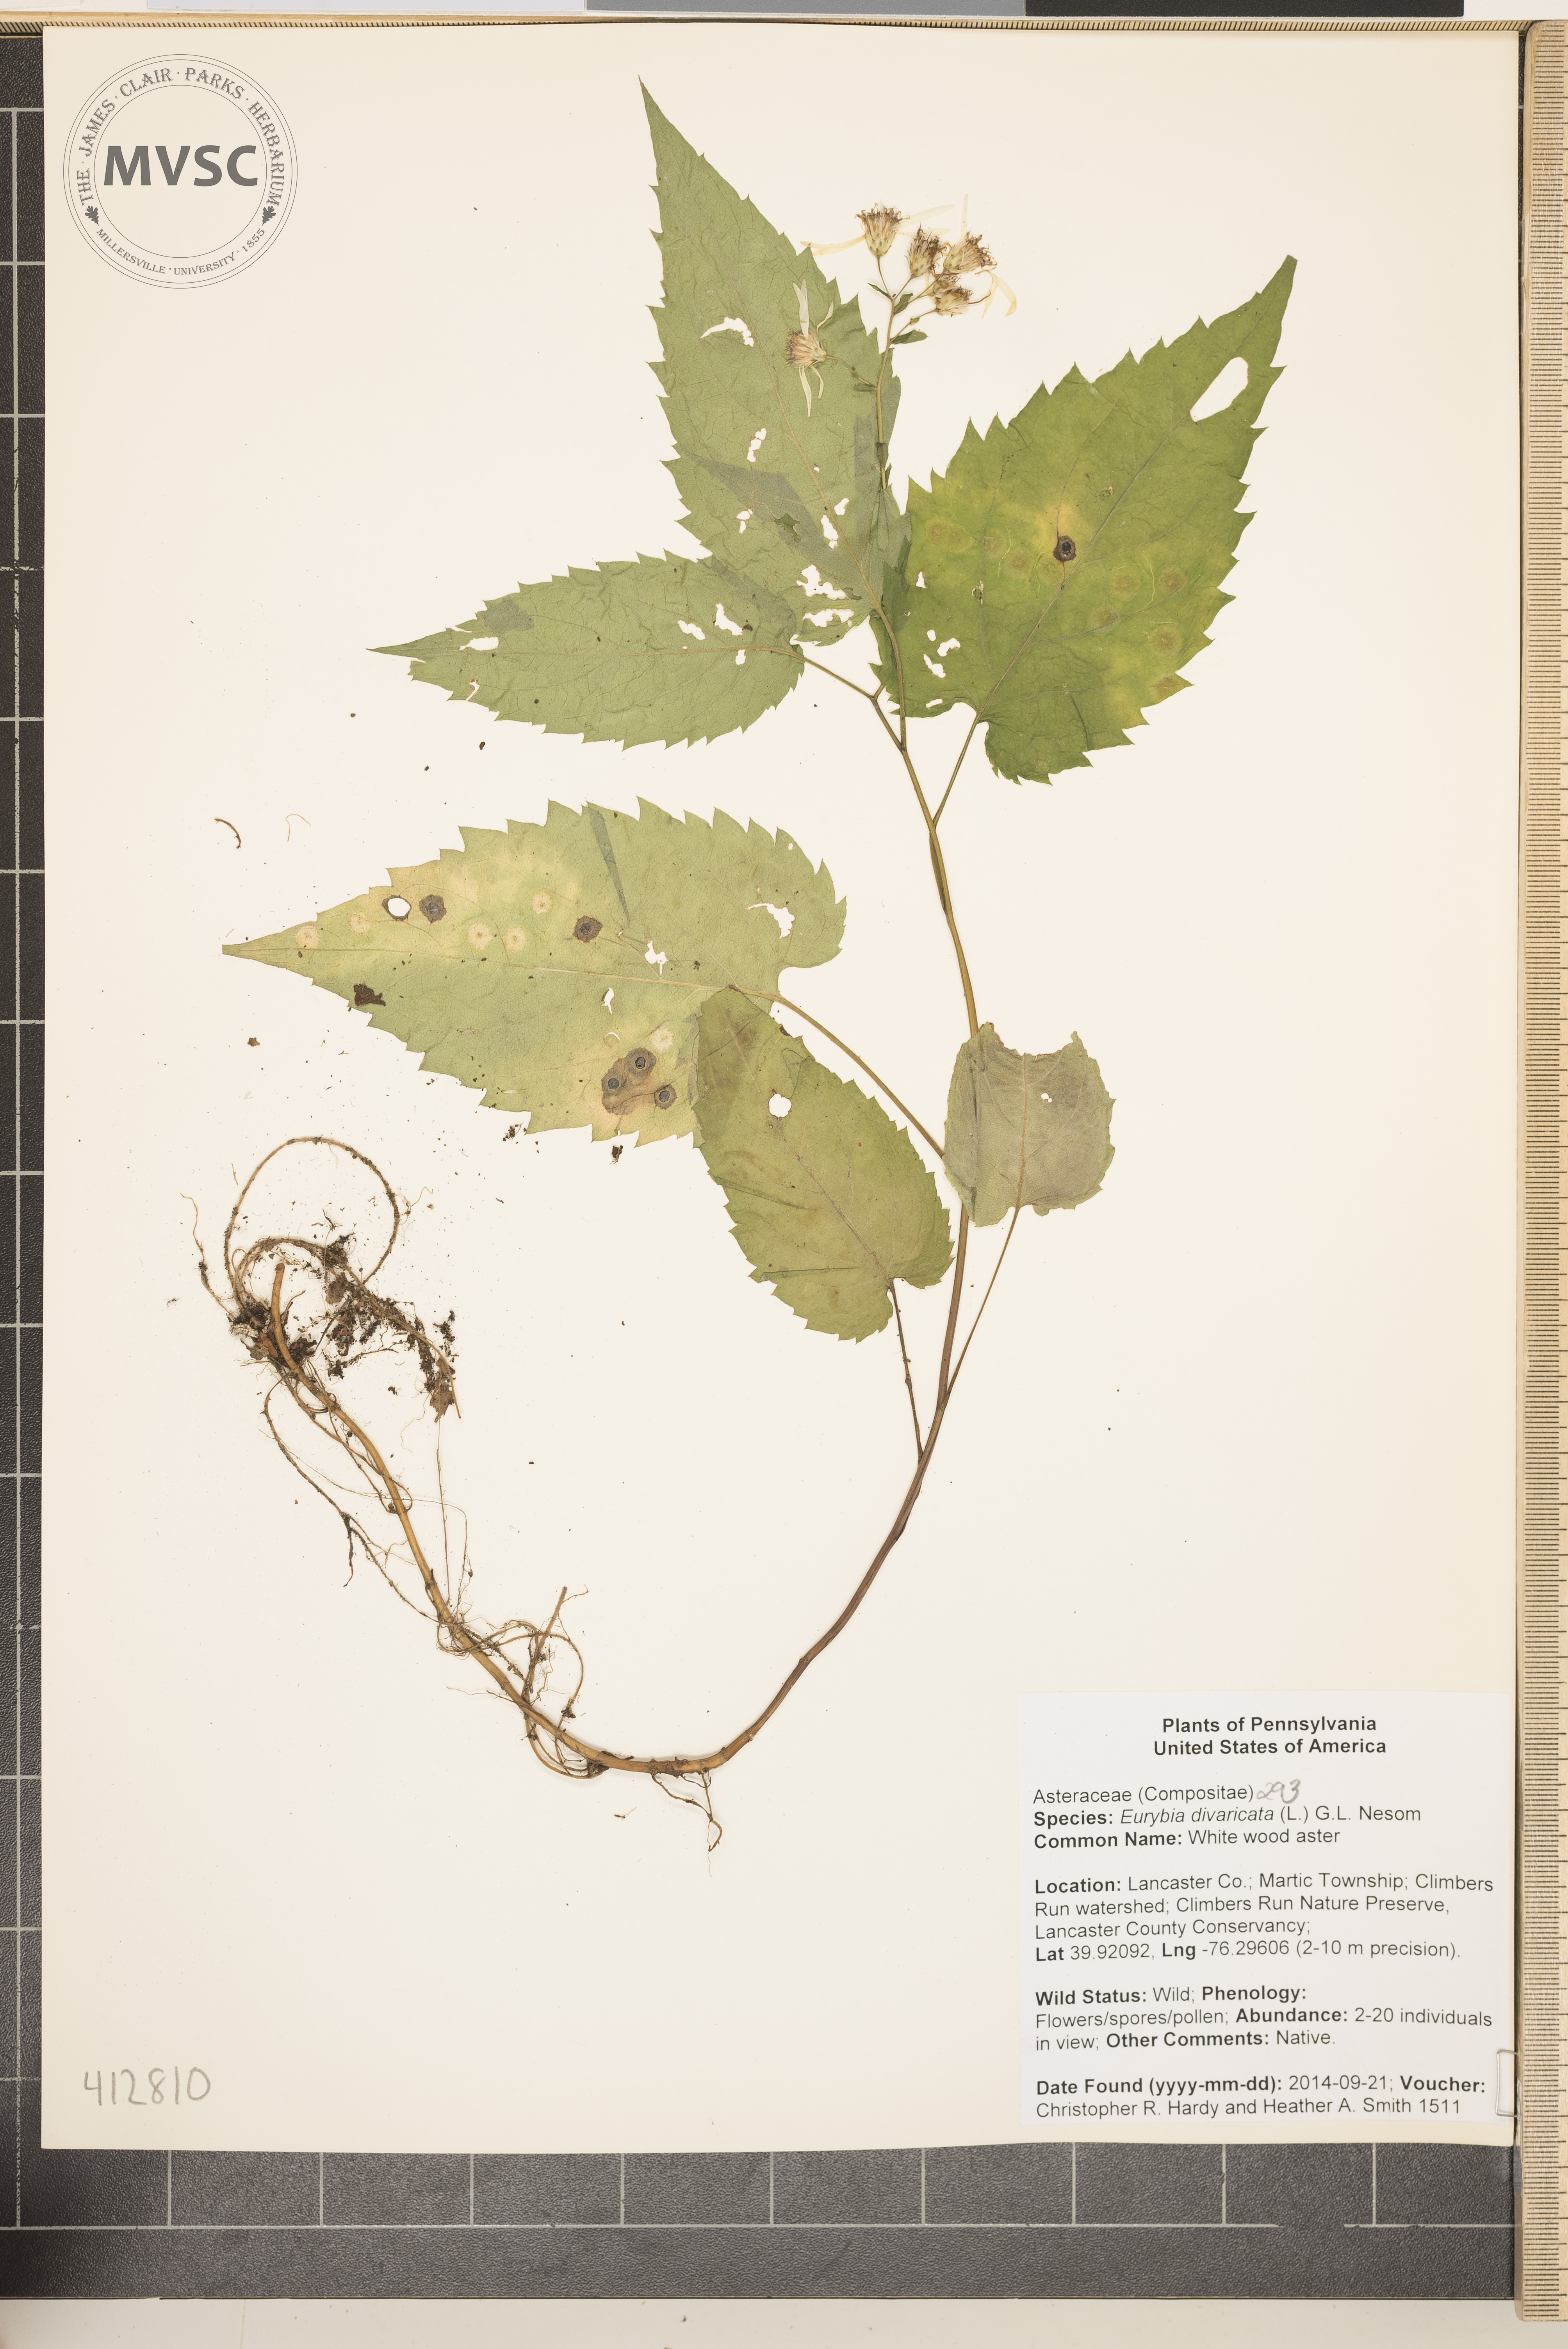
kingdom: Plantae
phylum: Tracheophyta
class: Magnoliopsida
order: Asterales
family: Asteraceae
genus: Eurybia
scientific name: Eurybia divaricata
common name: white wood aster
